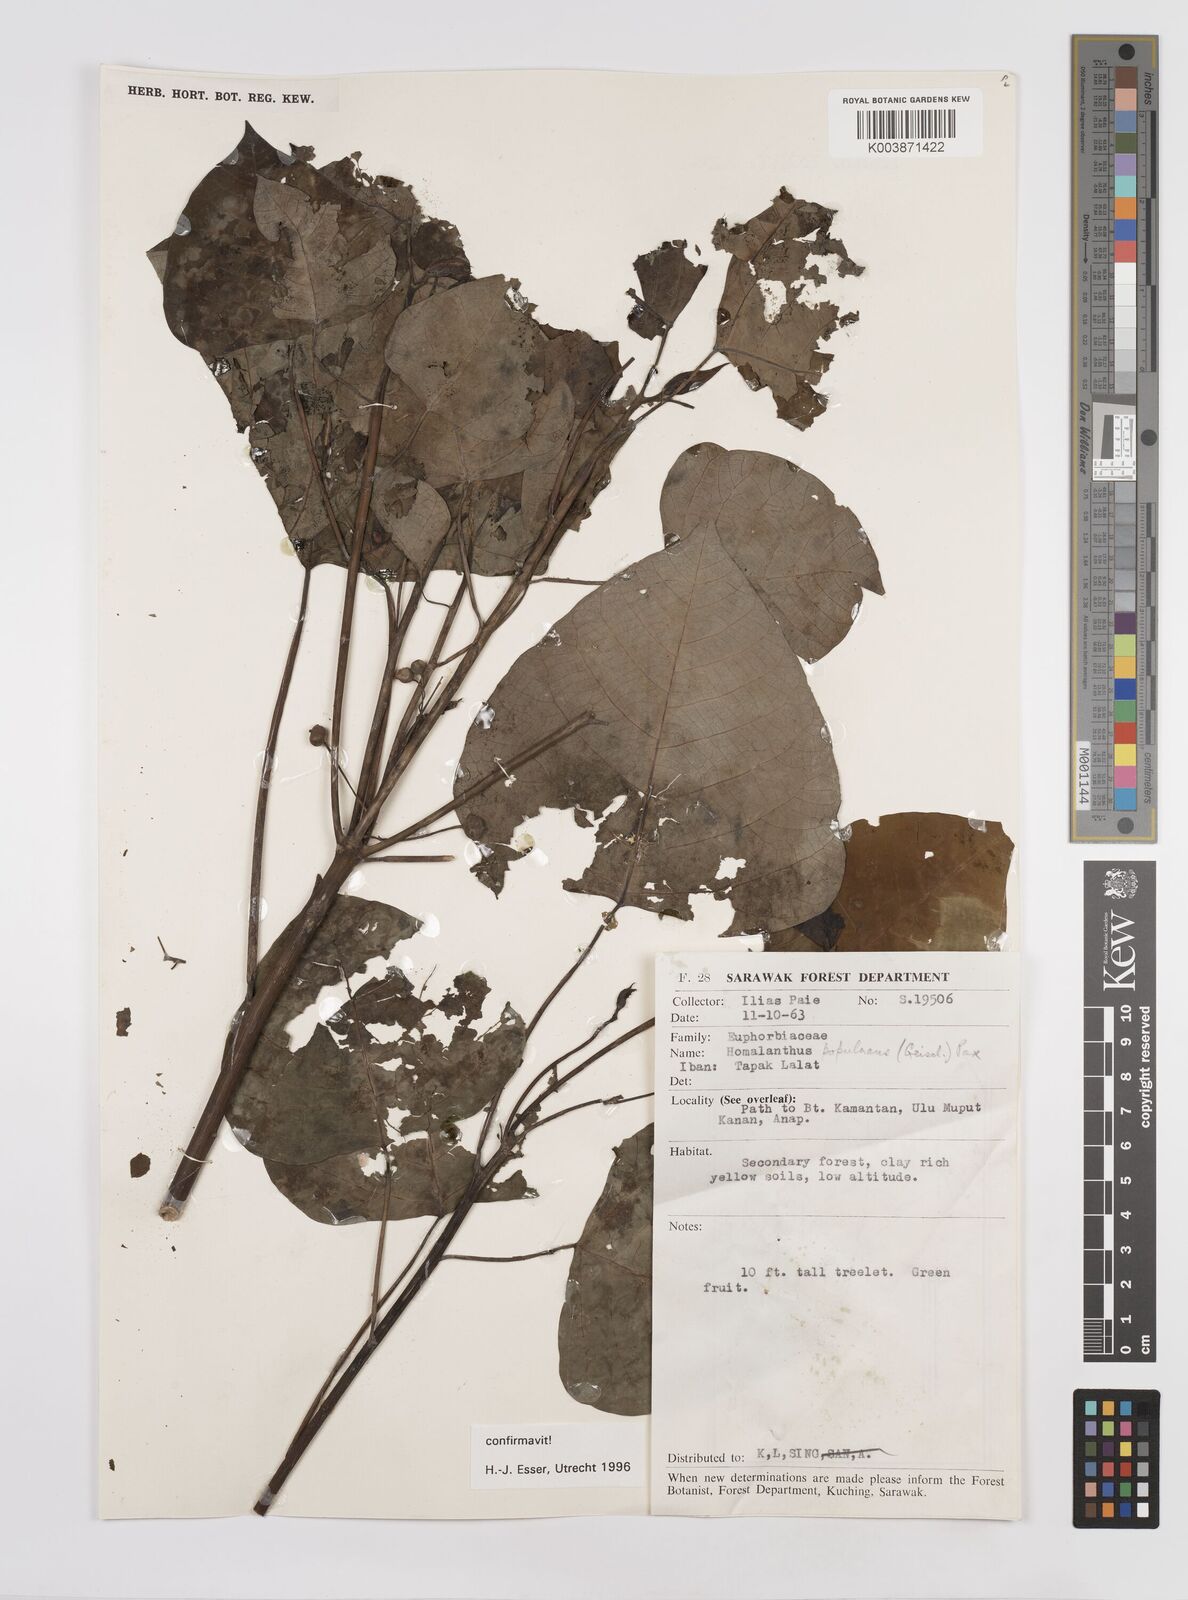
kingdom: Plantae
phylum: Tracheophyta
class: Magnoliopsida
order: Malpighiales
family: Euphorbiaceae
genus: Homalanthus
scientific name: Homalanthus populneus
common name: Spurge
